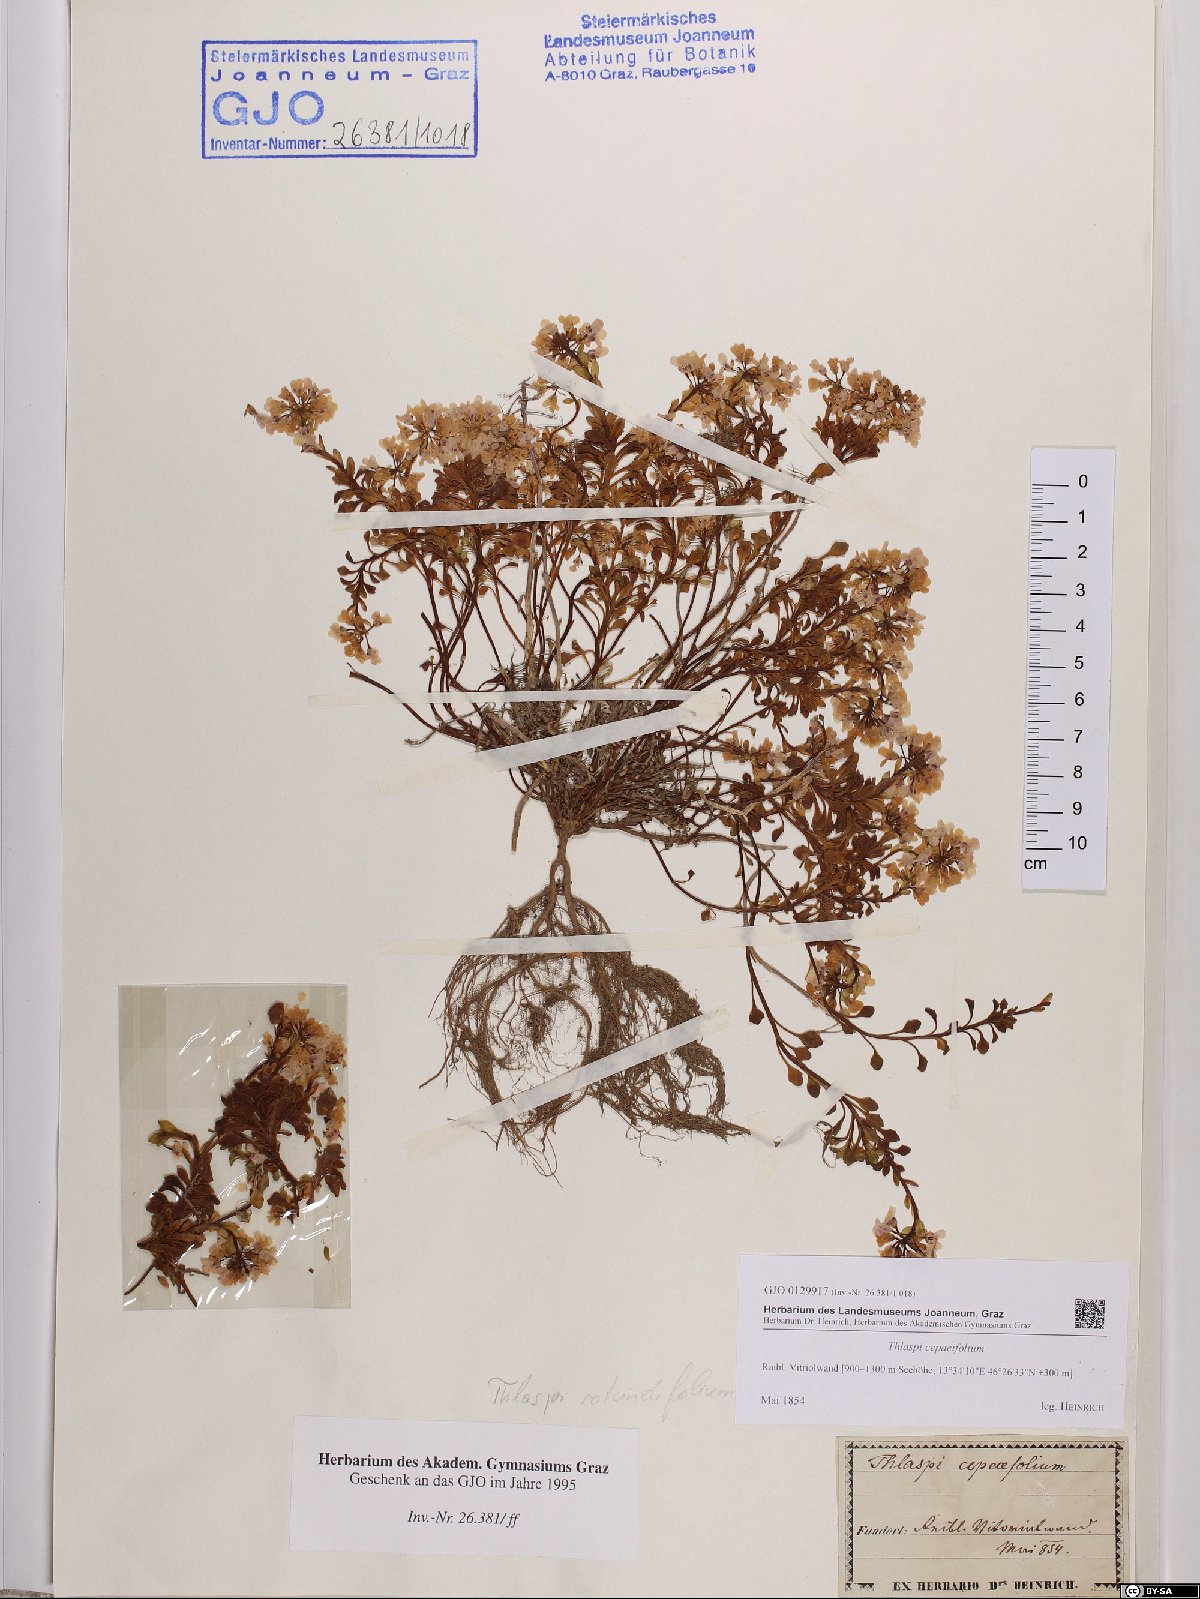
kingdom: Plantae
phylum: Tracheophyta
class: Magnoliopsida
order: Brassicales
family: Brassicaceae
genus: Noccaea
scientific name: Noccaea cepaeifolia
